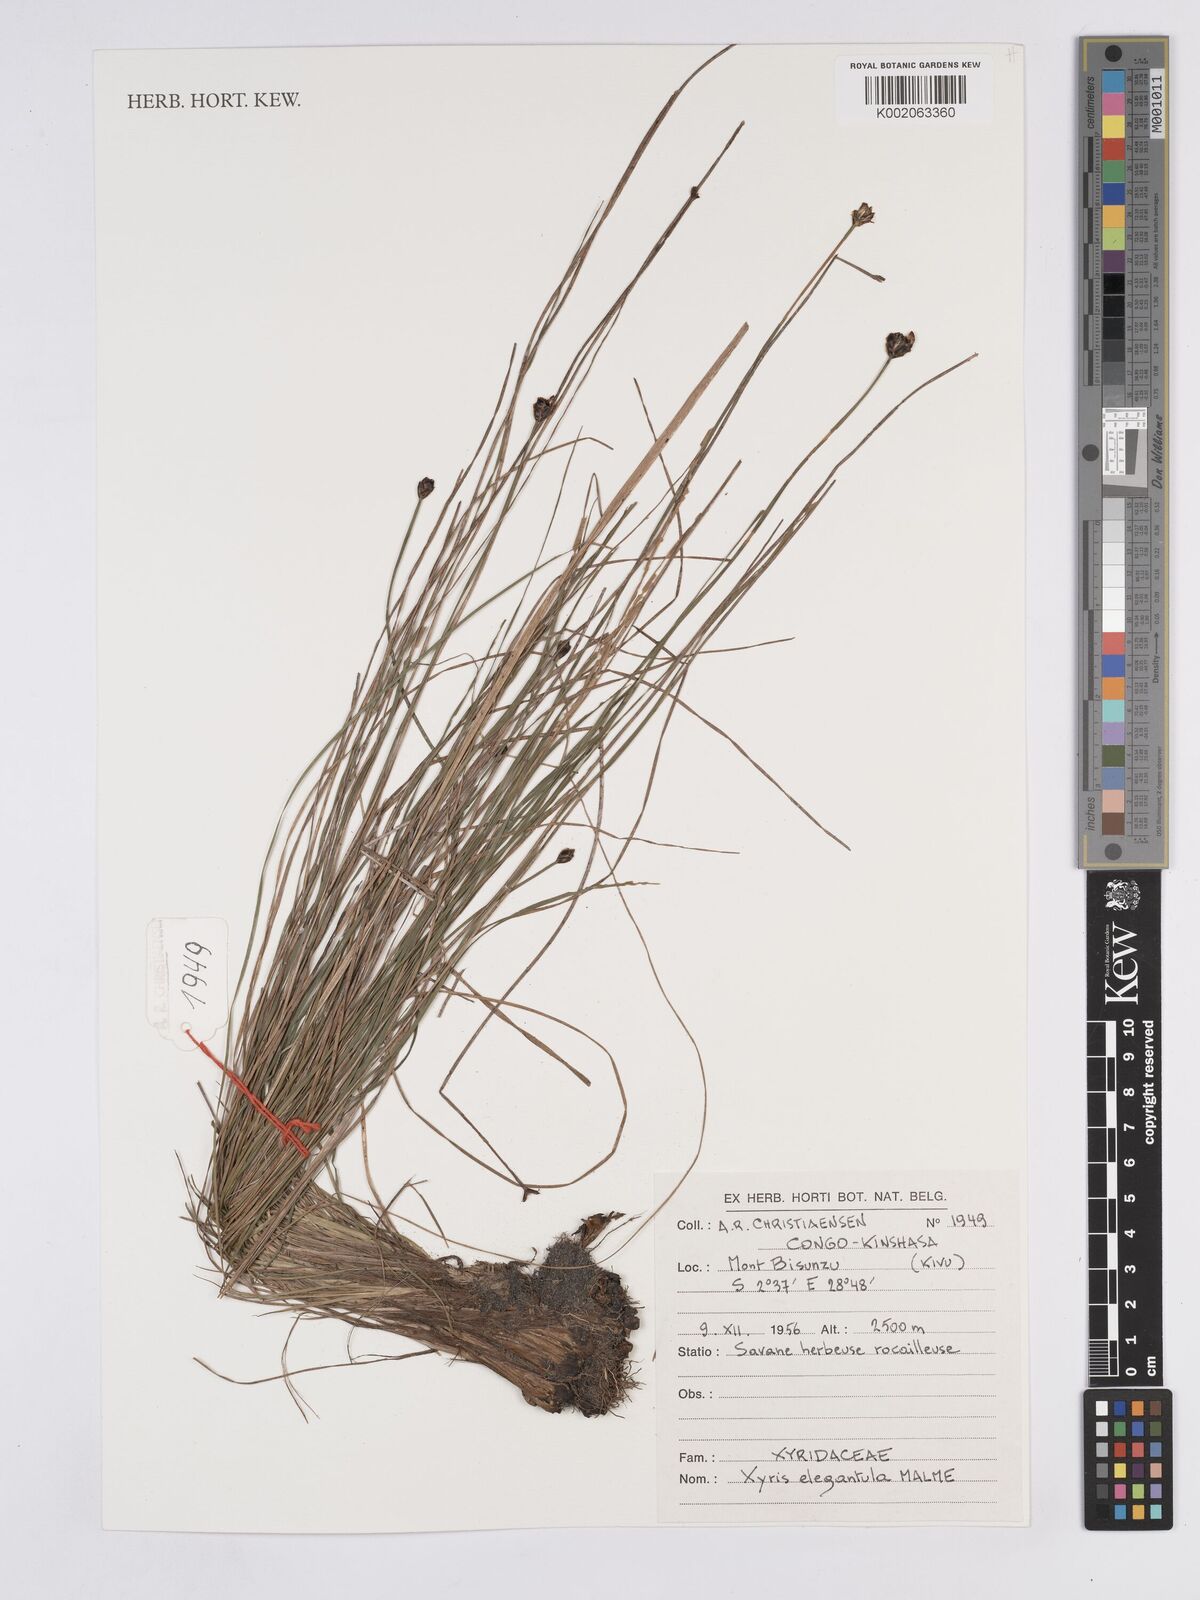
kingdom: Plantae
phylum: Tracheophyta
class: Liliopsida
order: Poales
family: Xyridaceae
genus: Xyris
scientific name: Xyris elegantula
